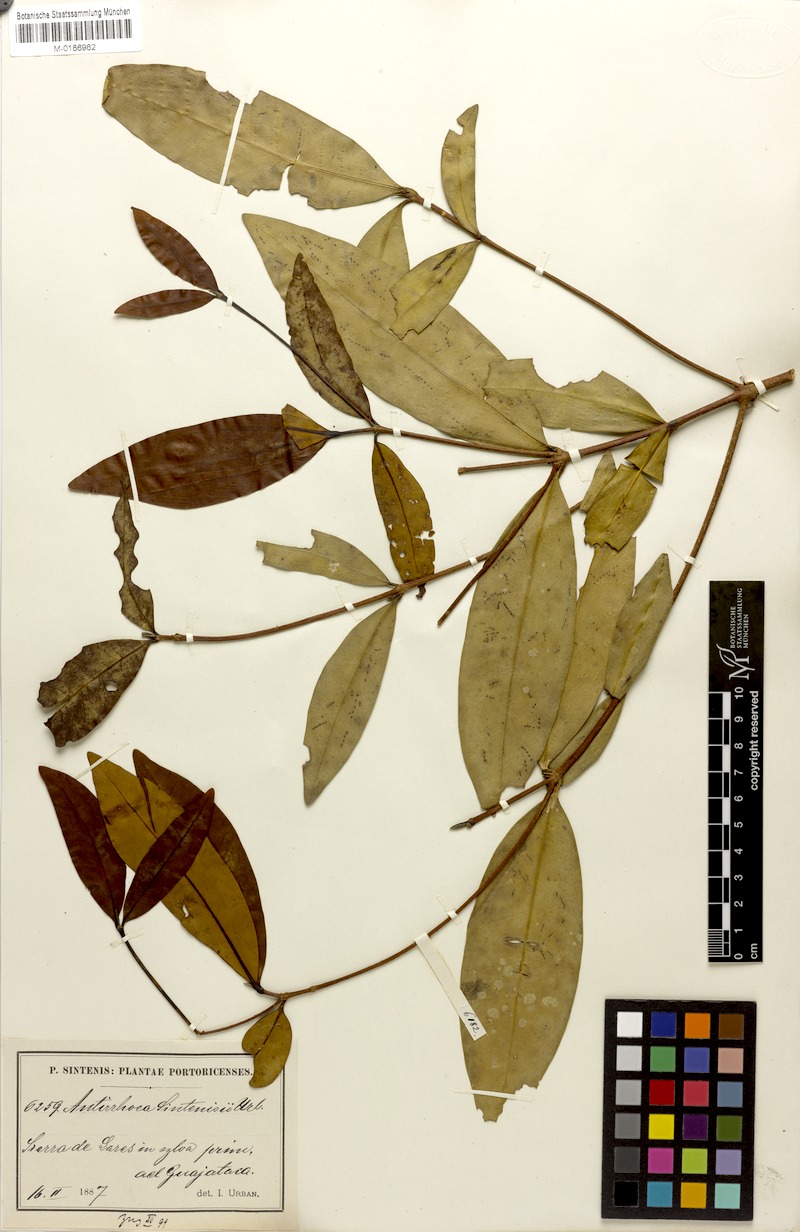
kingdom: Plantae
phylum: Tracheophyta
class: Magnoliopsida
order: Gentianales
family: Rubiaceae
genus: Stenostomum
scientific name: Stenostomum sintenisii
